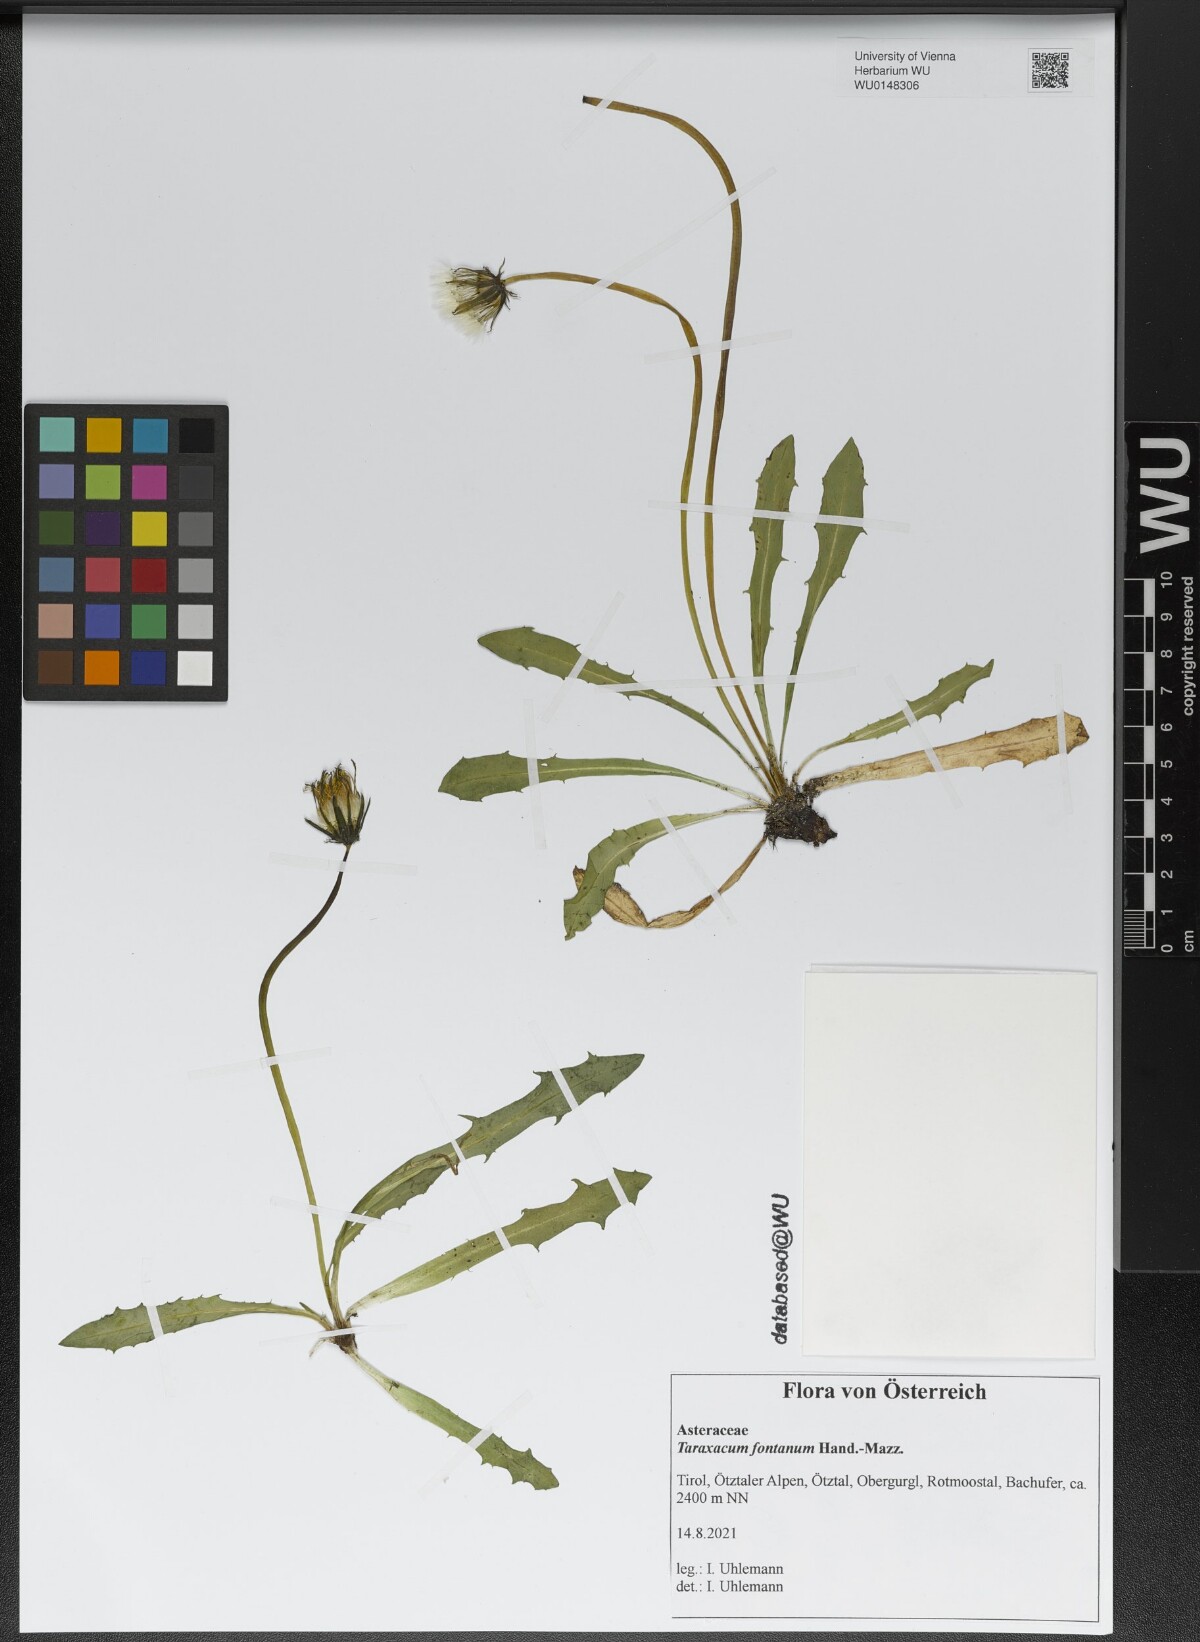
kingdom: Plantae
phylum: Tracheophyta
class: Magnoliopsida
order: Asterales
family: Asteraceae
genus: Taraxacum
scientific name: Taraxacum fontanum
